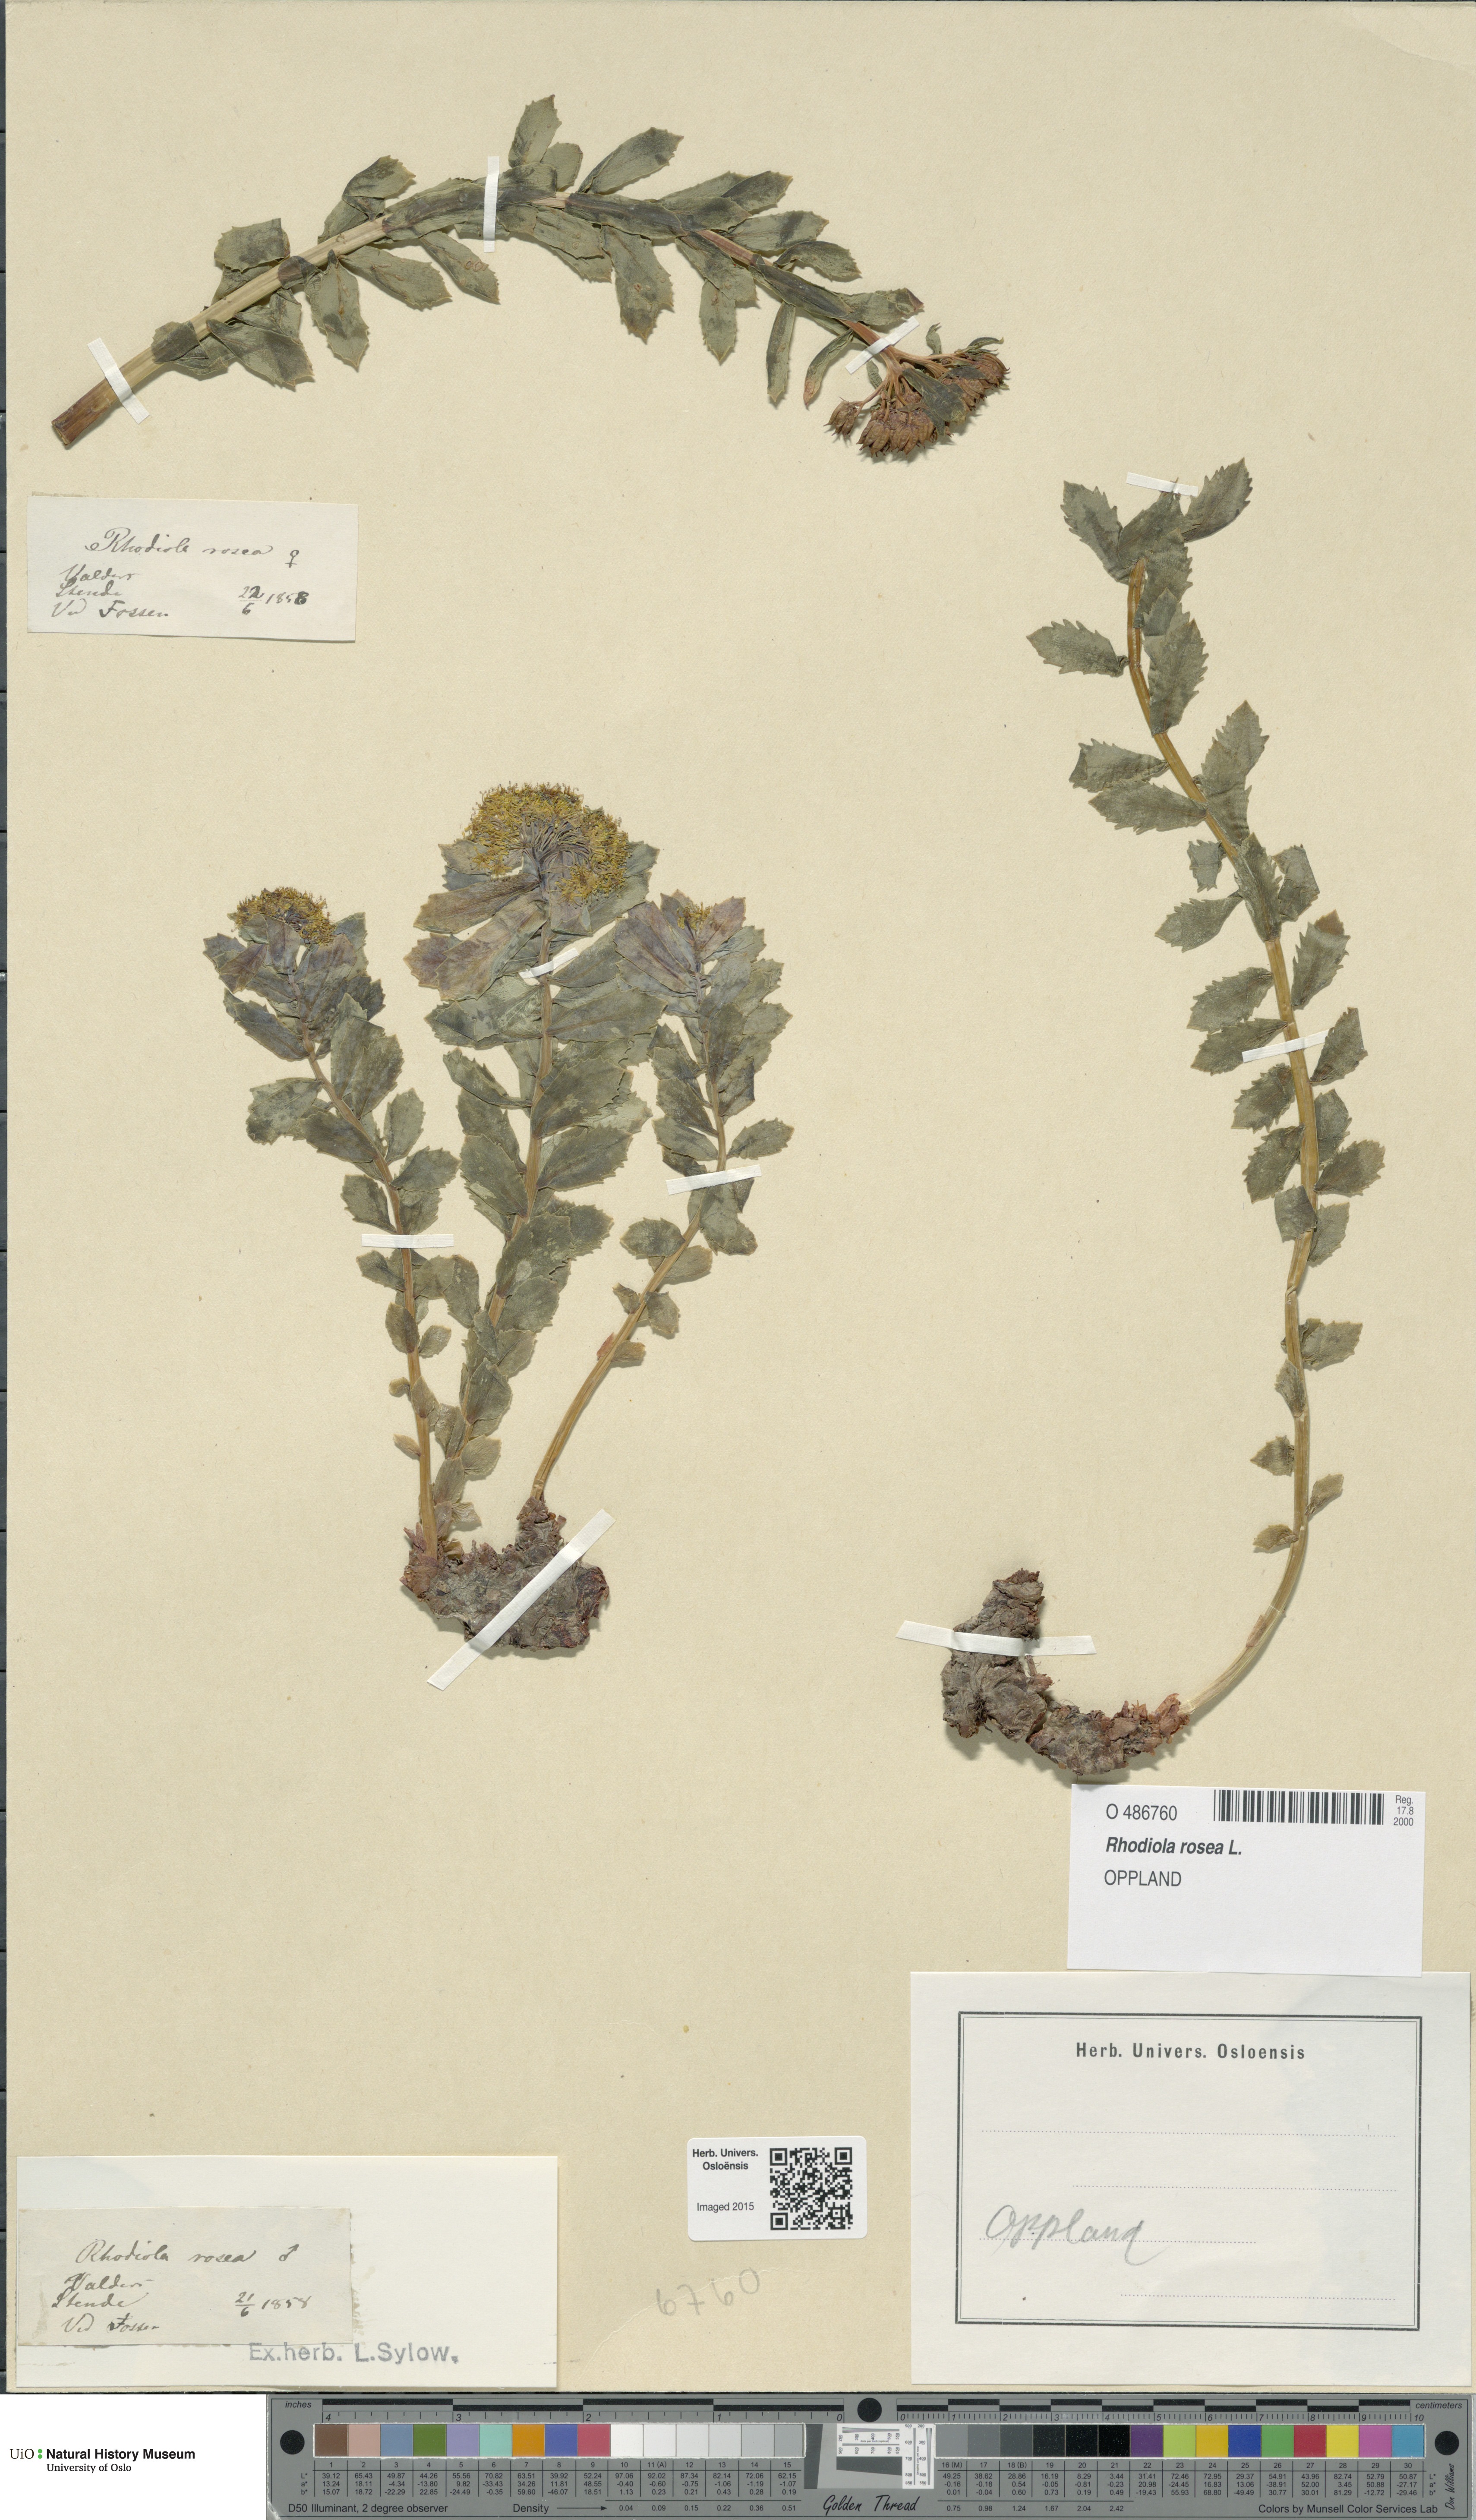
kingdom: Plantae
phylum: Tracheophyta
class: Magnoliopsida
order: Saxifragales
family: Crassulaceae
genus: Rhodiola
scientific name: Rhodiola rosea
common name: Roseroot
